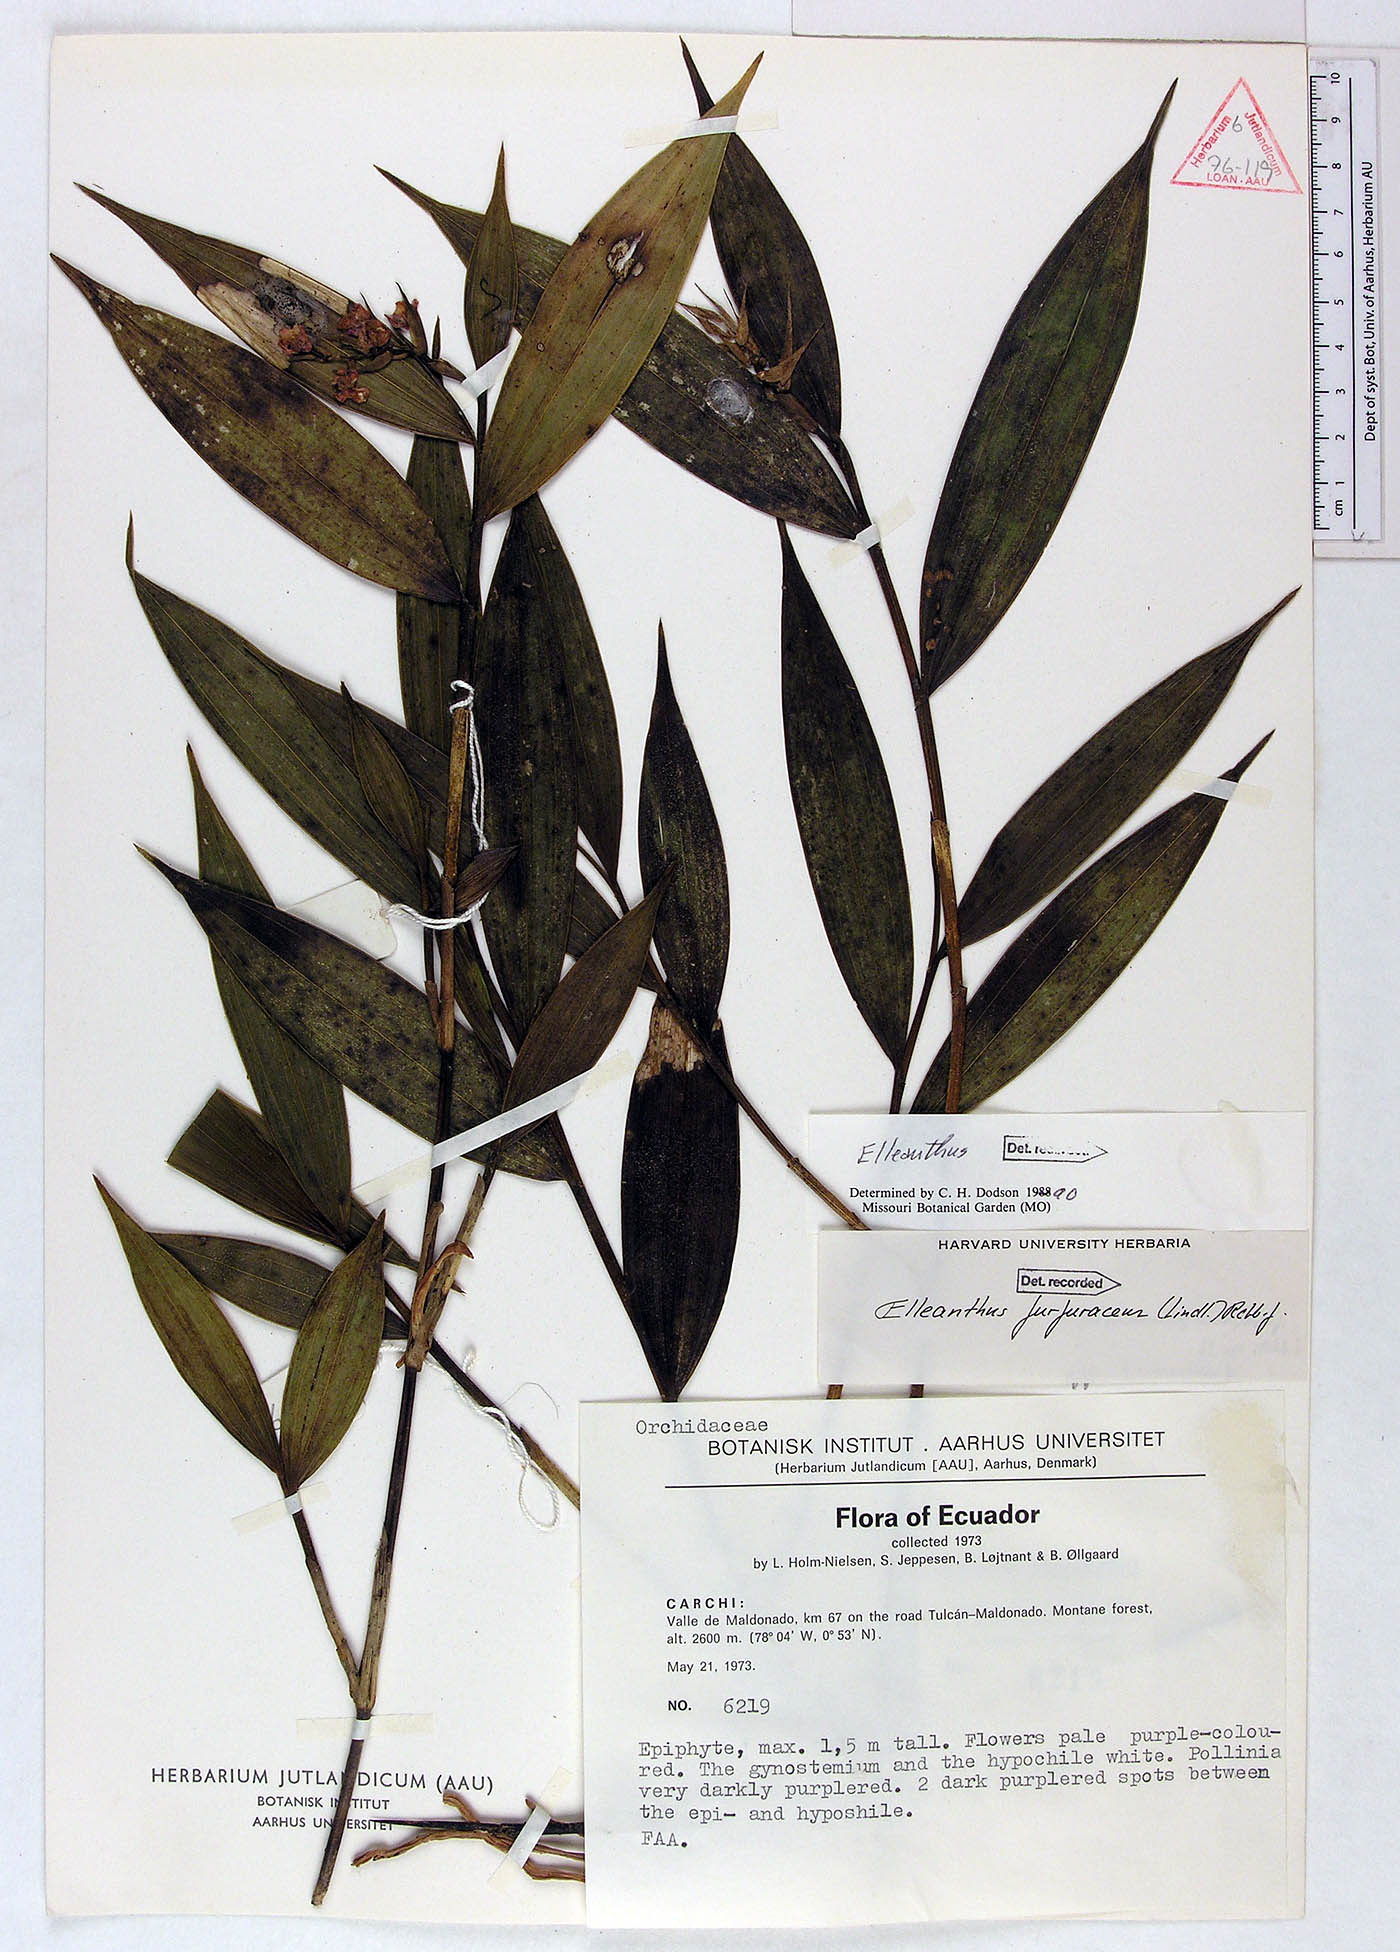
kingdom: Plantae
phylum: Tracheophyta
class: Liliopsida
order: Asparagales
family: Orchidaceae
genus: Elleanthus
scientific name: Elleanthus gastroglottis
